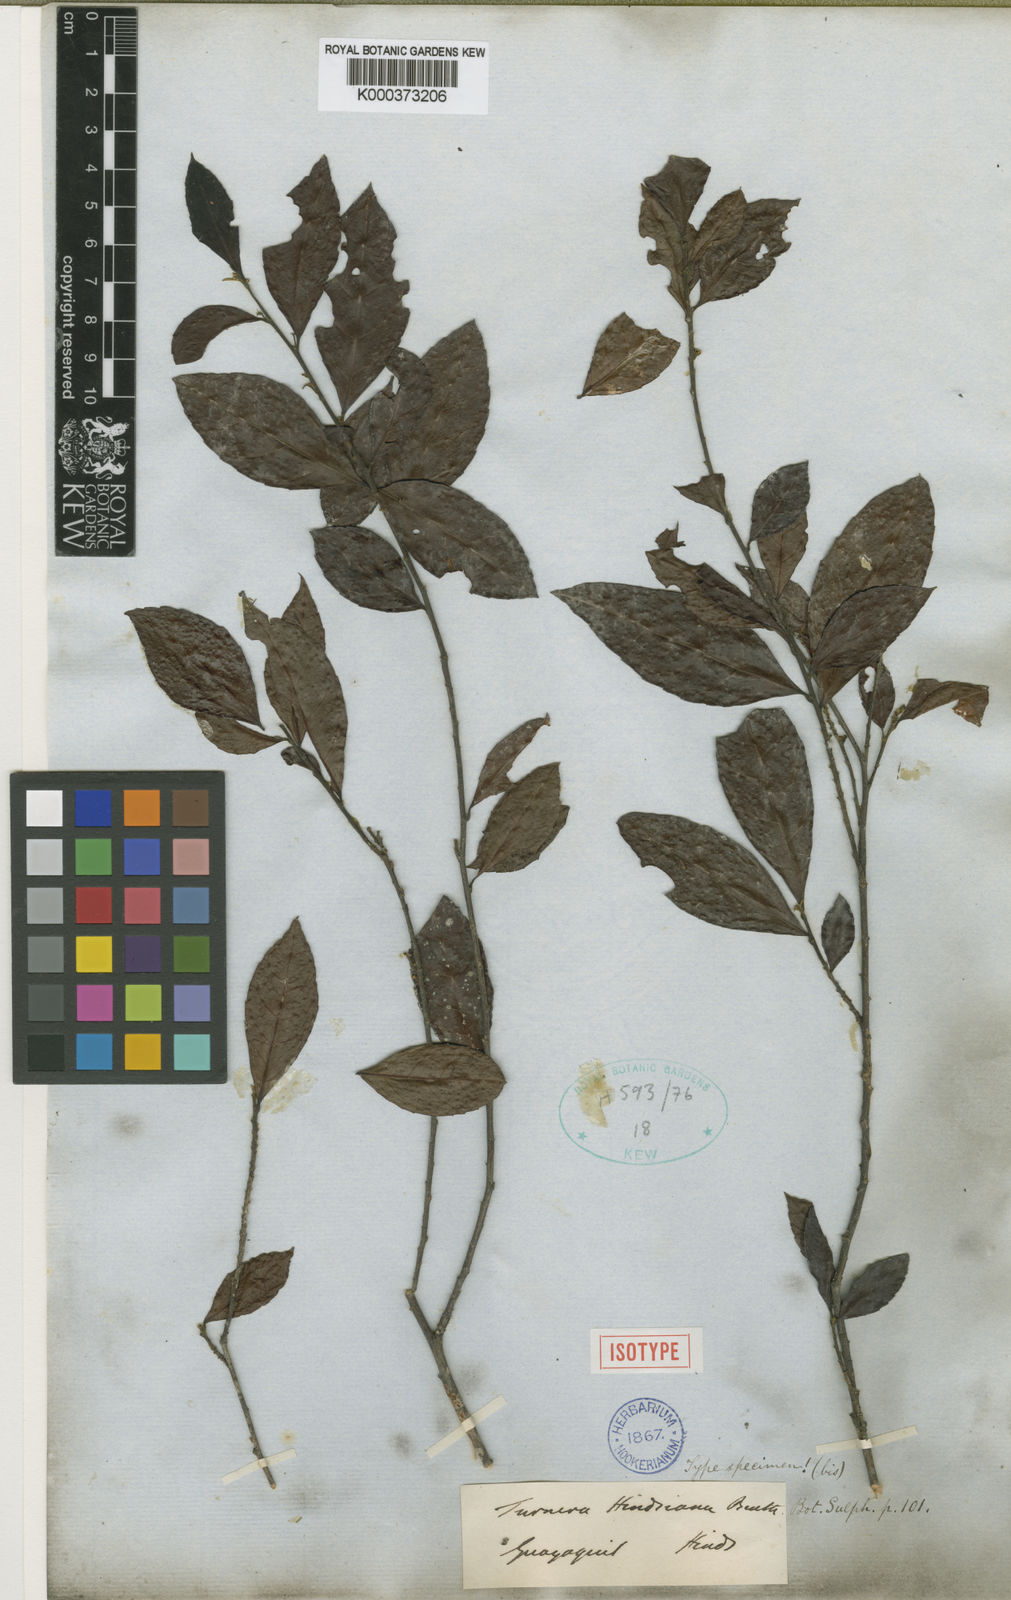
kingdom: Plantae
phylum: Tracheophyta
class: Magnoliopsida
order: Malpighiales
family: Turneraceae
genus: Turnera
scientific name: Turnera hindsiana
